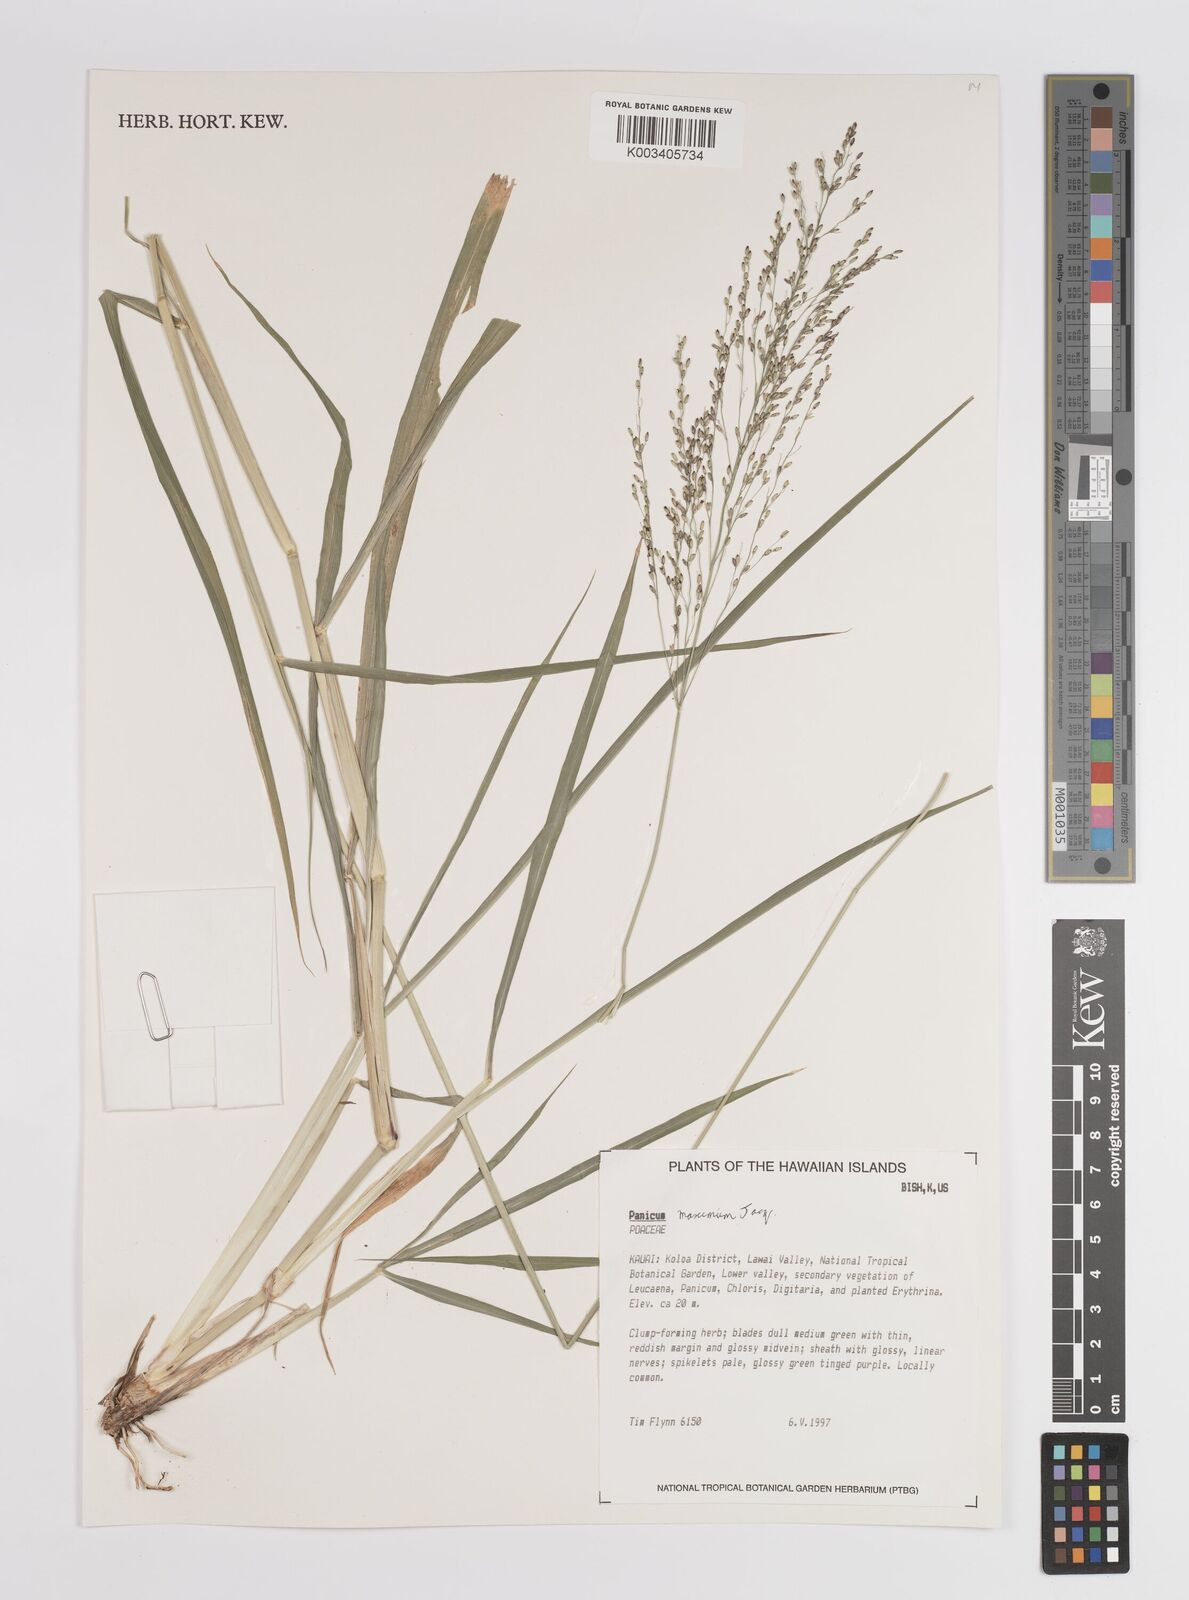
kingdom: Plantae
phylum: Tracheophyta
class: Liliopsida
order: Poales
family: Poaceae
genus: Megathyrsus
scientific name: Megathyrsus maximus
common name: Guineagrass
